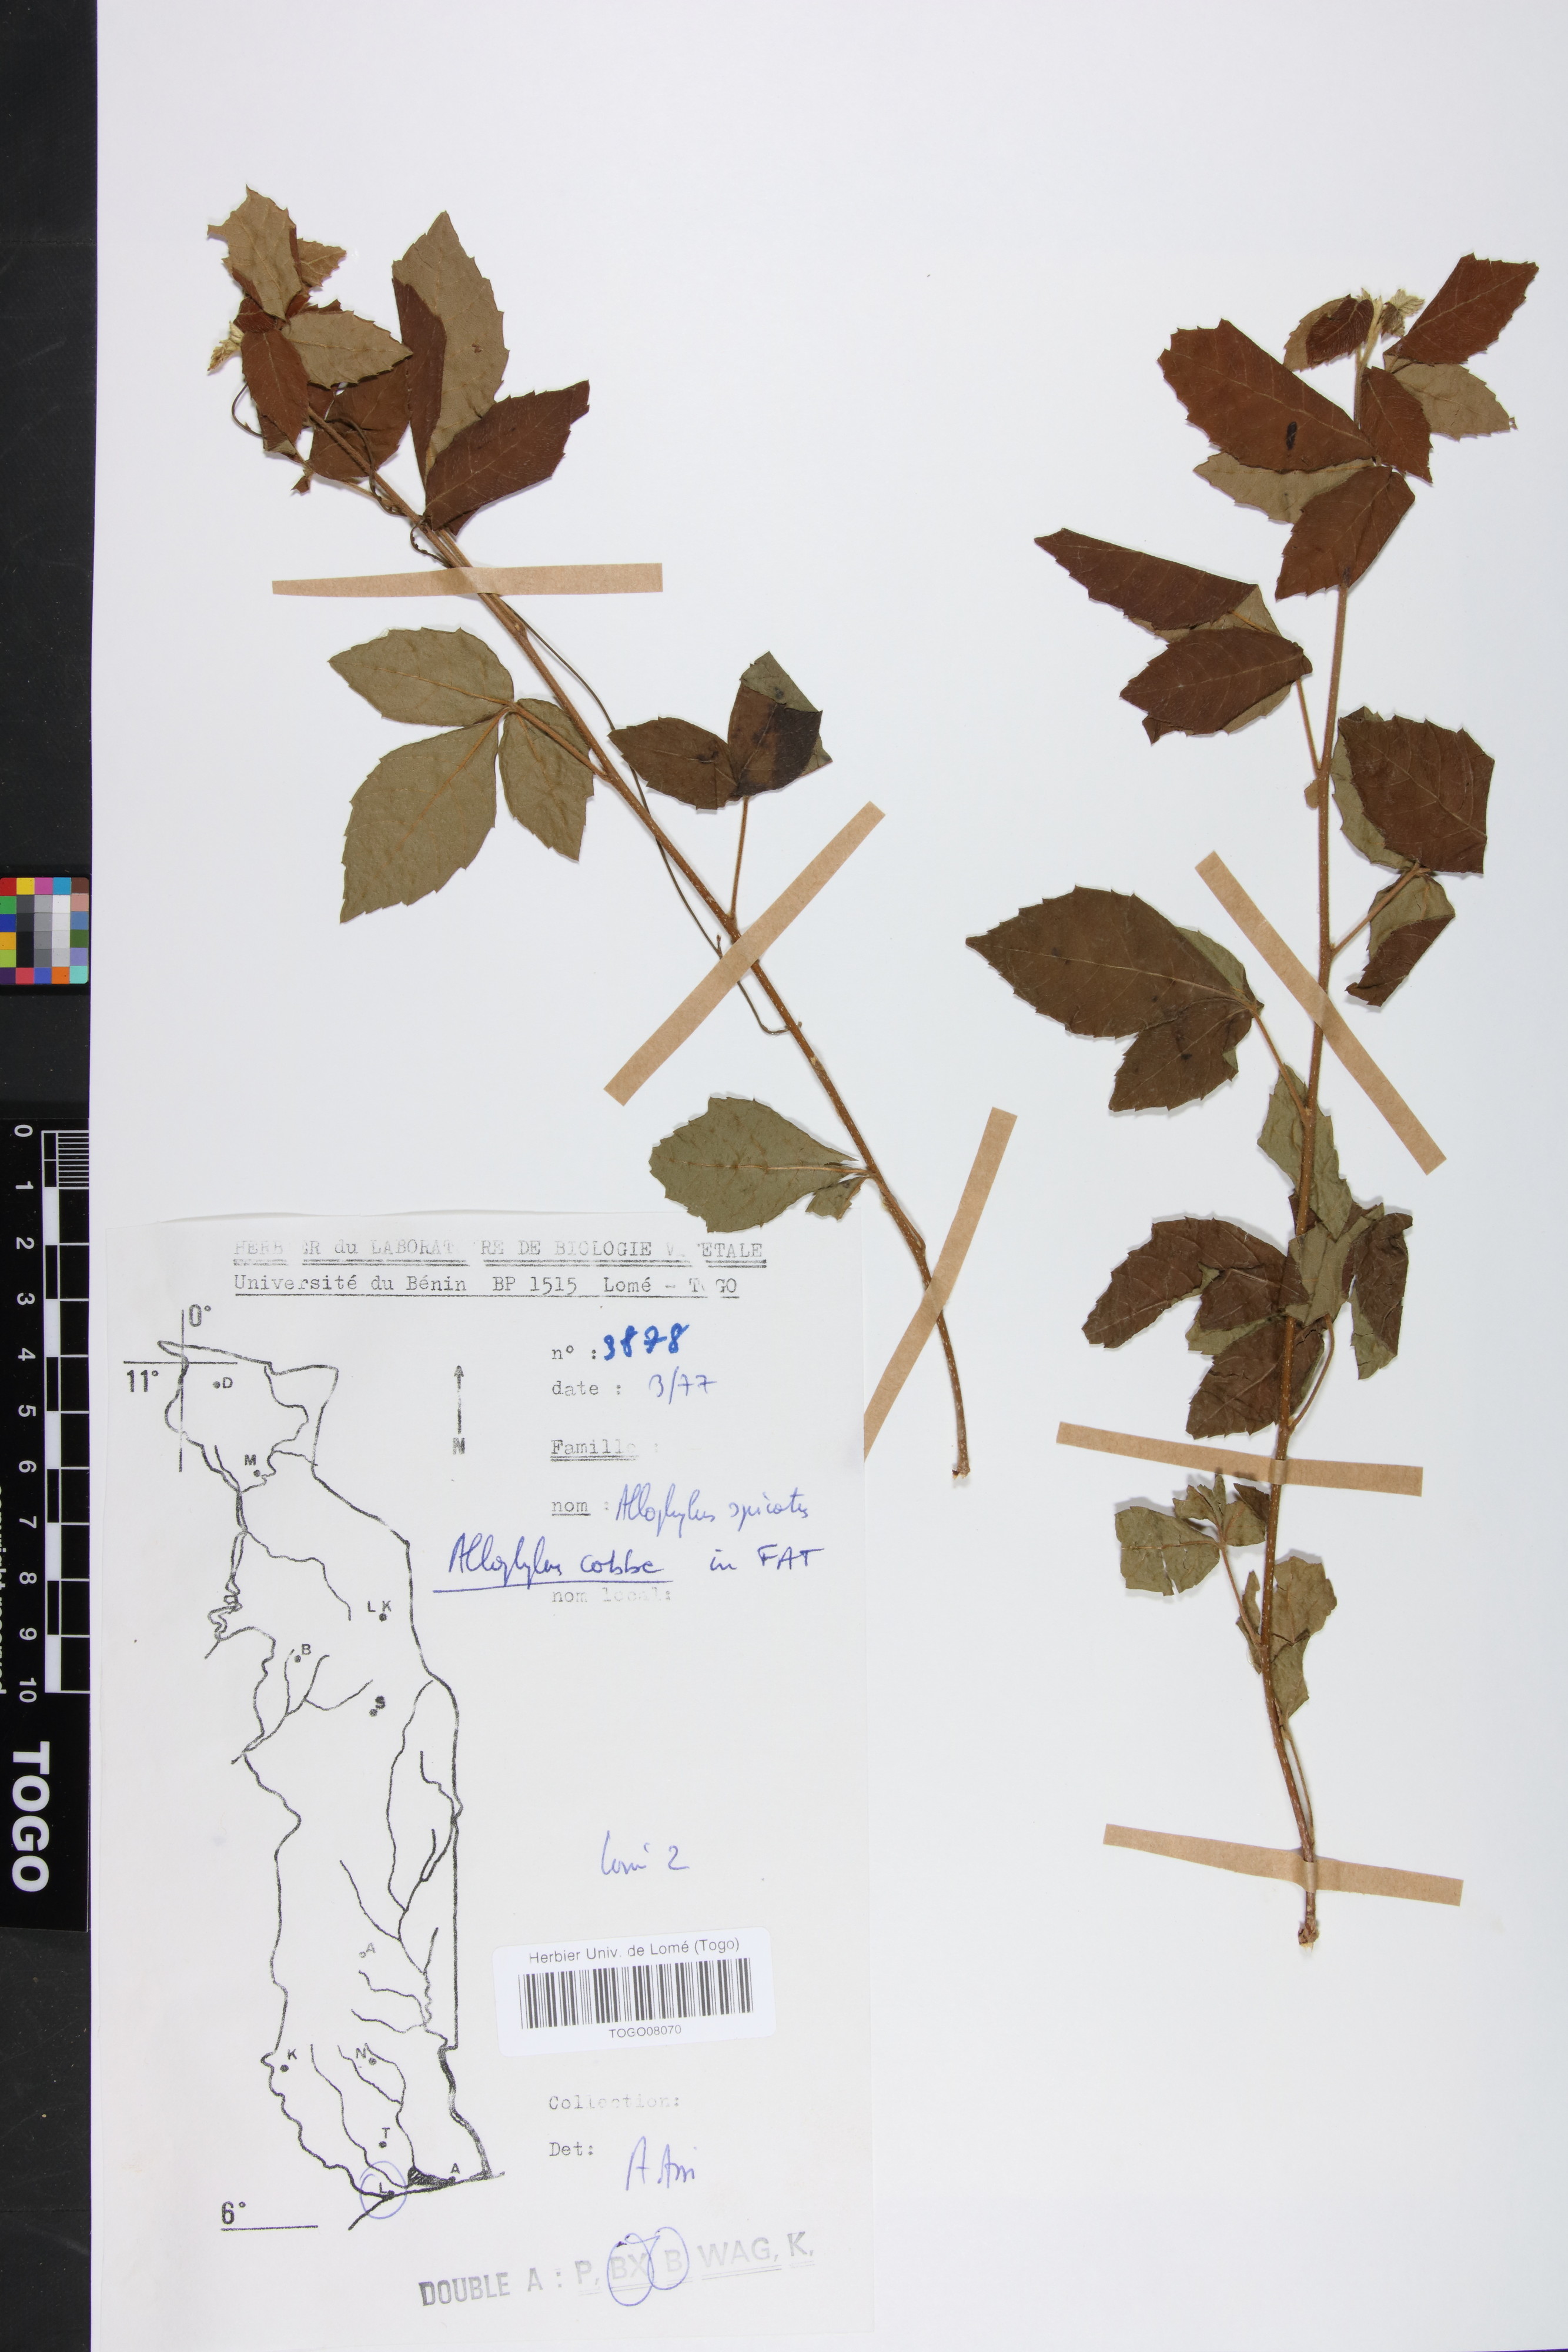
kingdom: Plantae
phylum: Tracheophyta
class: Magnoliopsida
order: Sapindales
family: Sapindaceae
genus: Allophylus
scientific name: Allophylus cobbe
